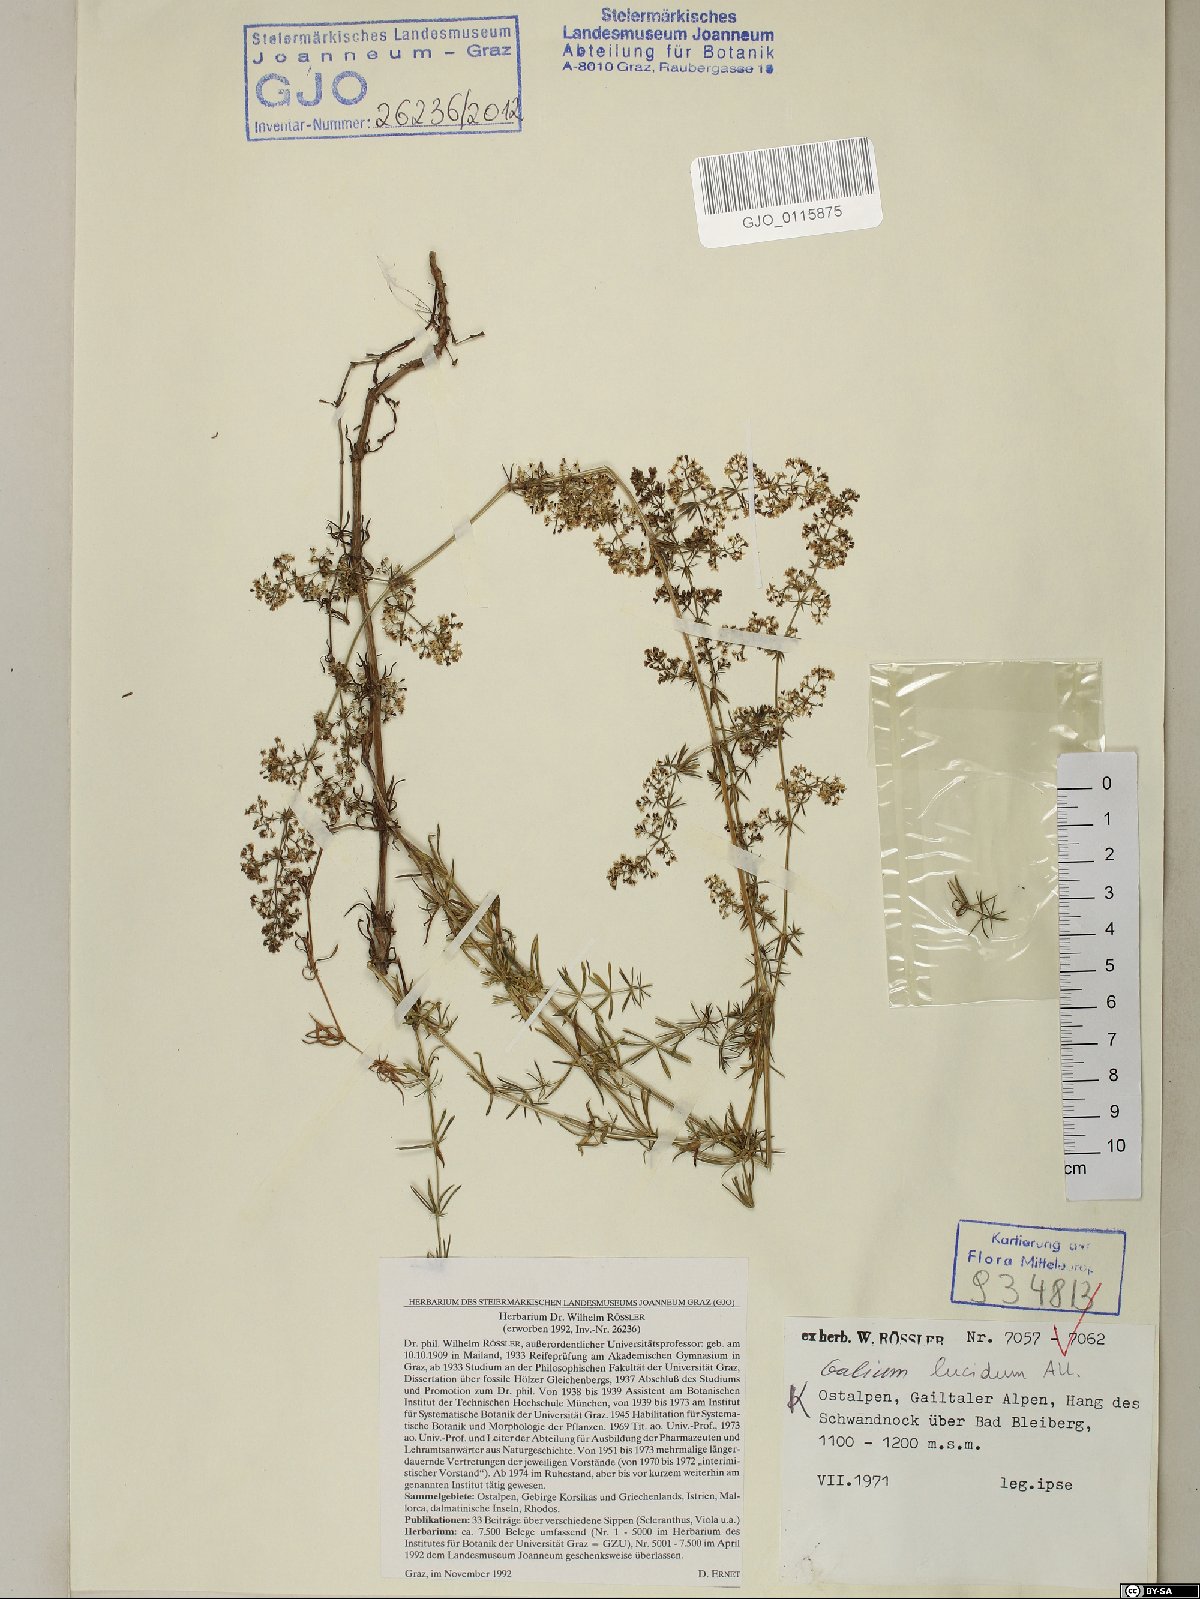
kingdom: Plantae
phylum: Tracheophyta
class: Magnoliopsida
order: Gentianales
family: Rubiaceae
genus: Galium
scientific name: Galium lucidum
